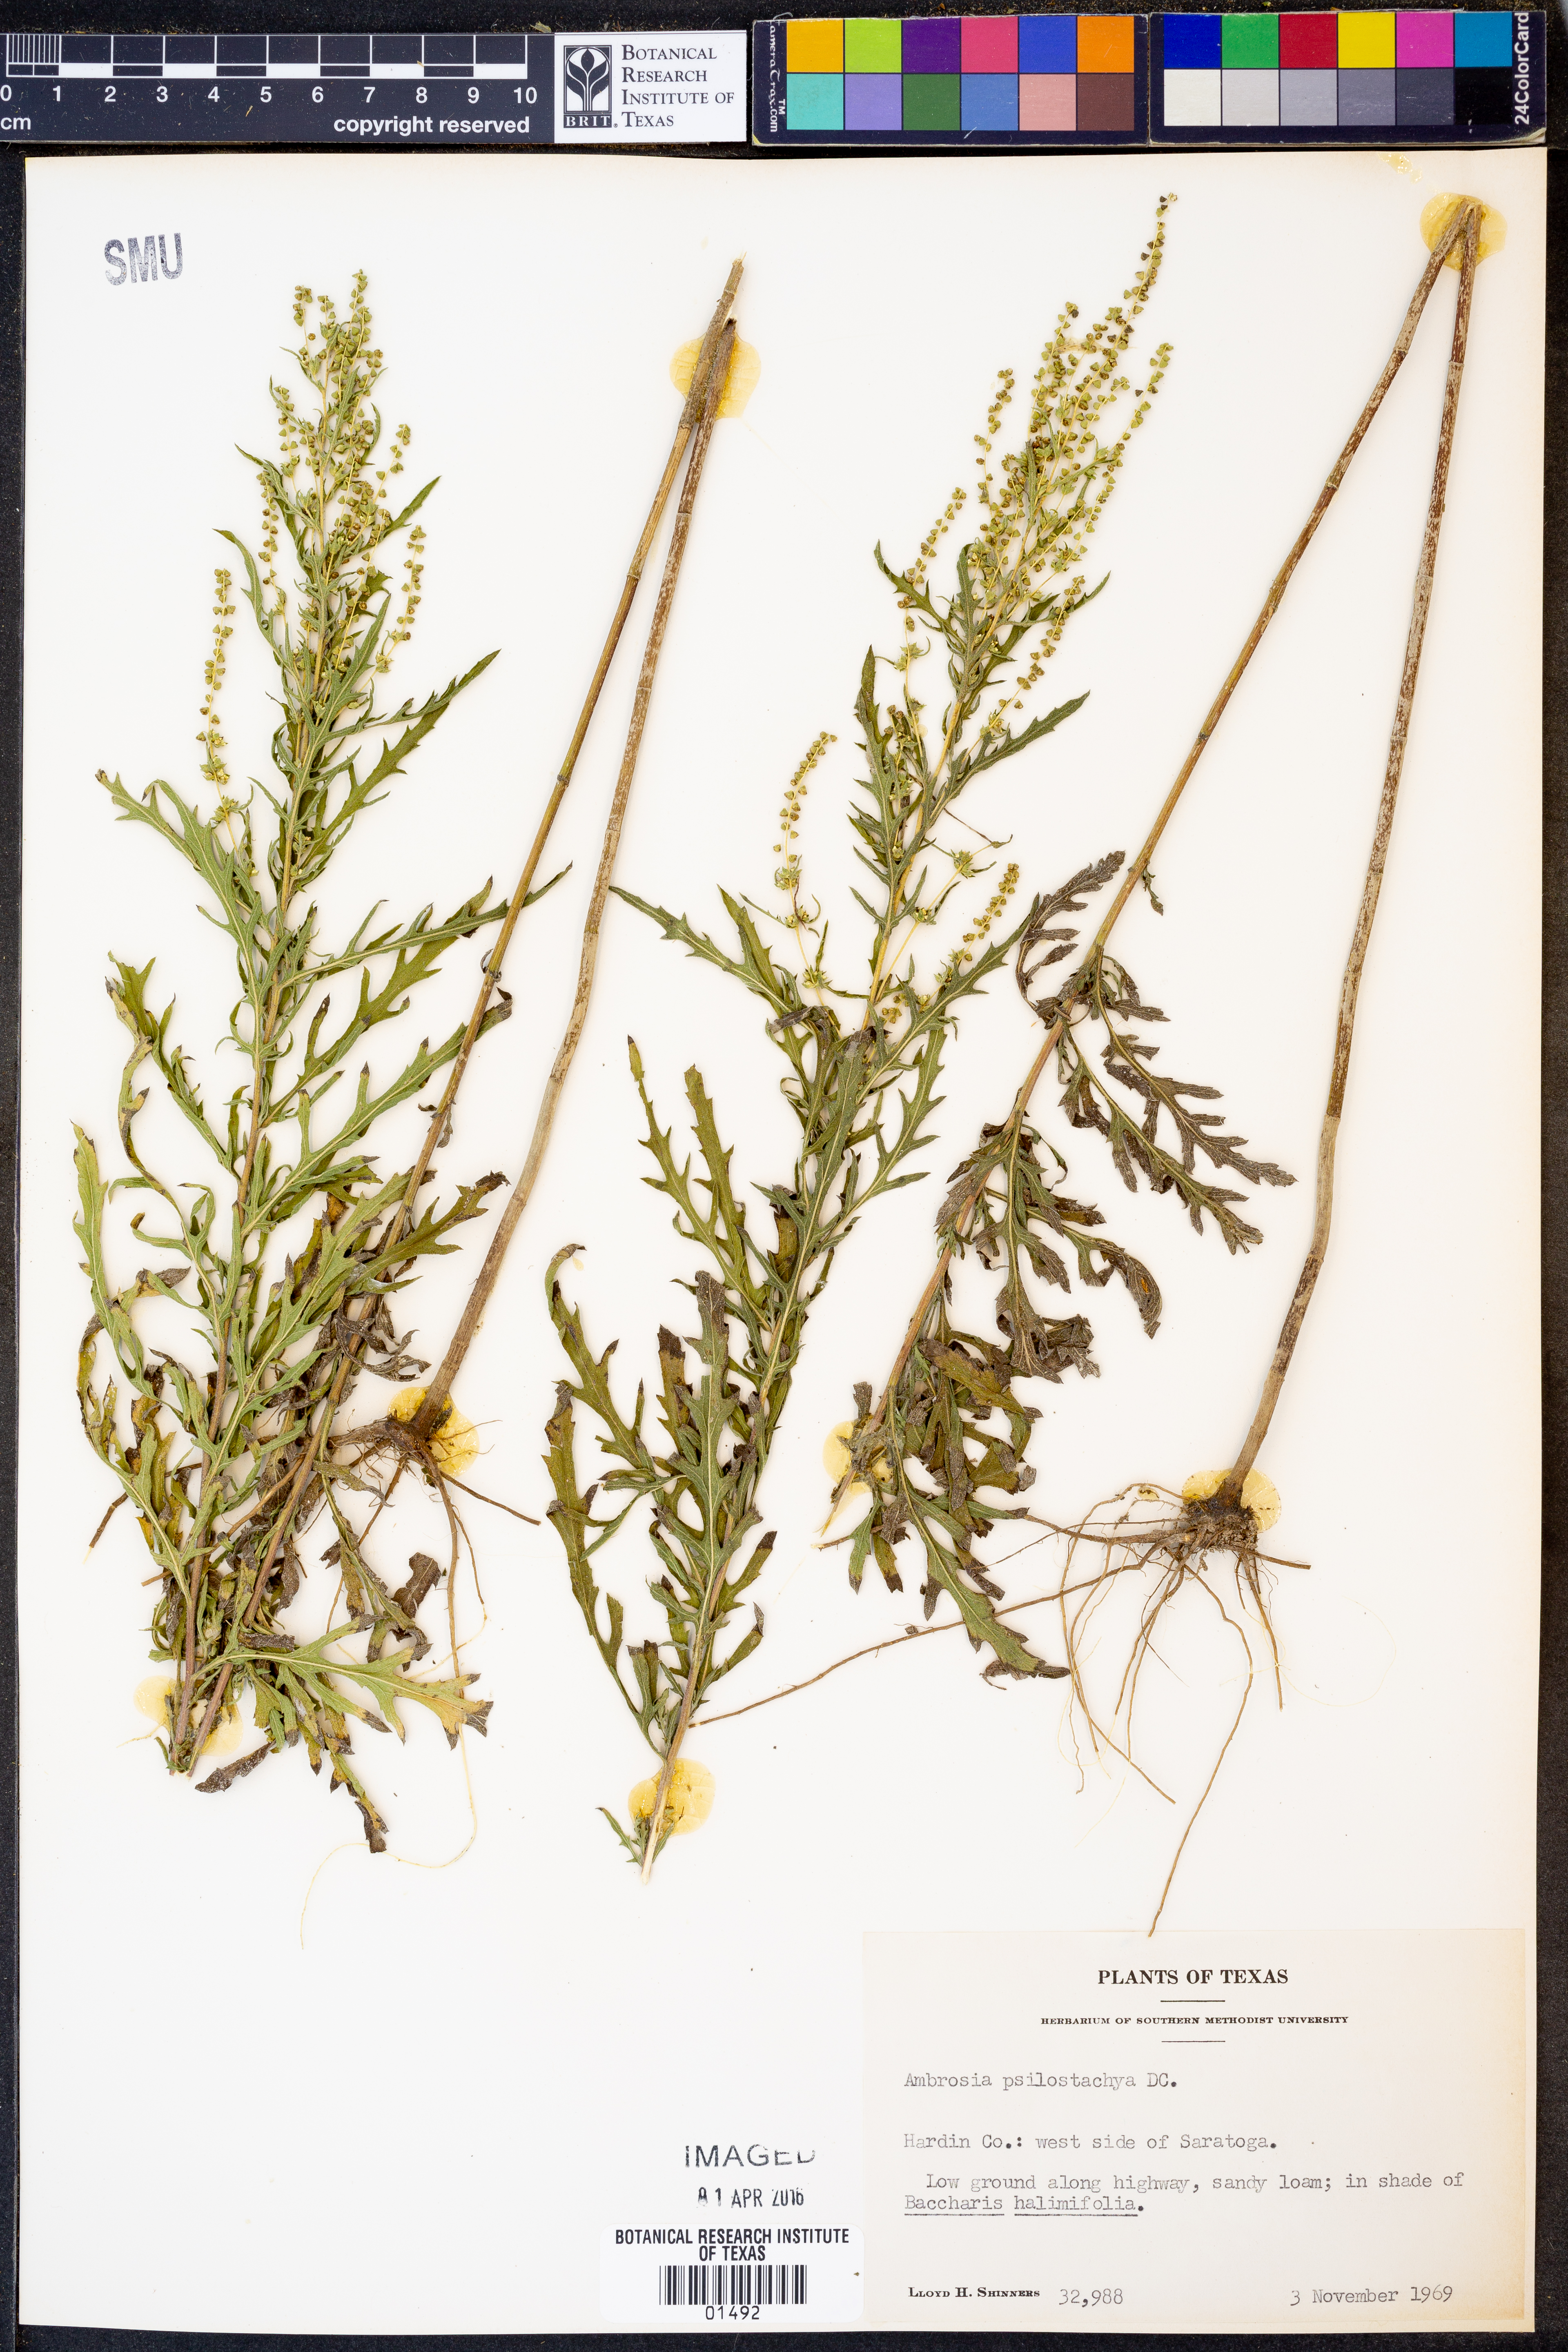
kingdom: Plantae
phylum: Tracheophyta
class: Magnoliopsida
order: Asterales
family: Asteraceae
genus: Ambrosia
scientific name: Ambrosia psilostachya
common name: Perennial ragweed
